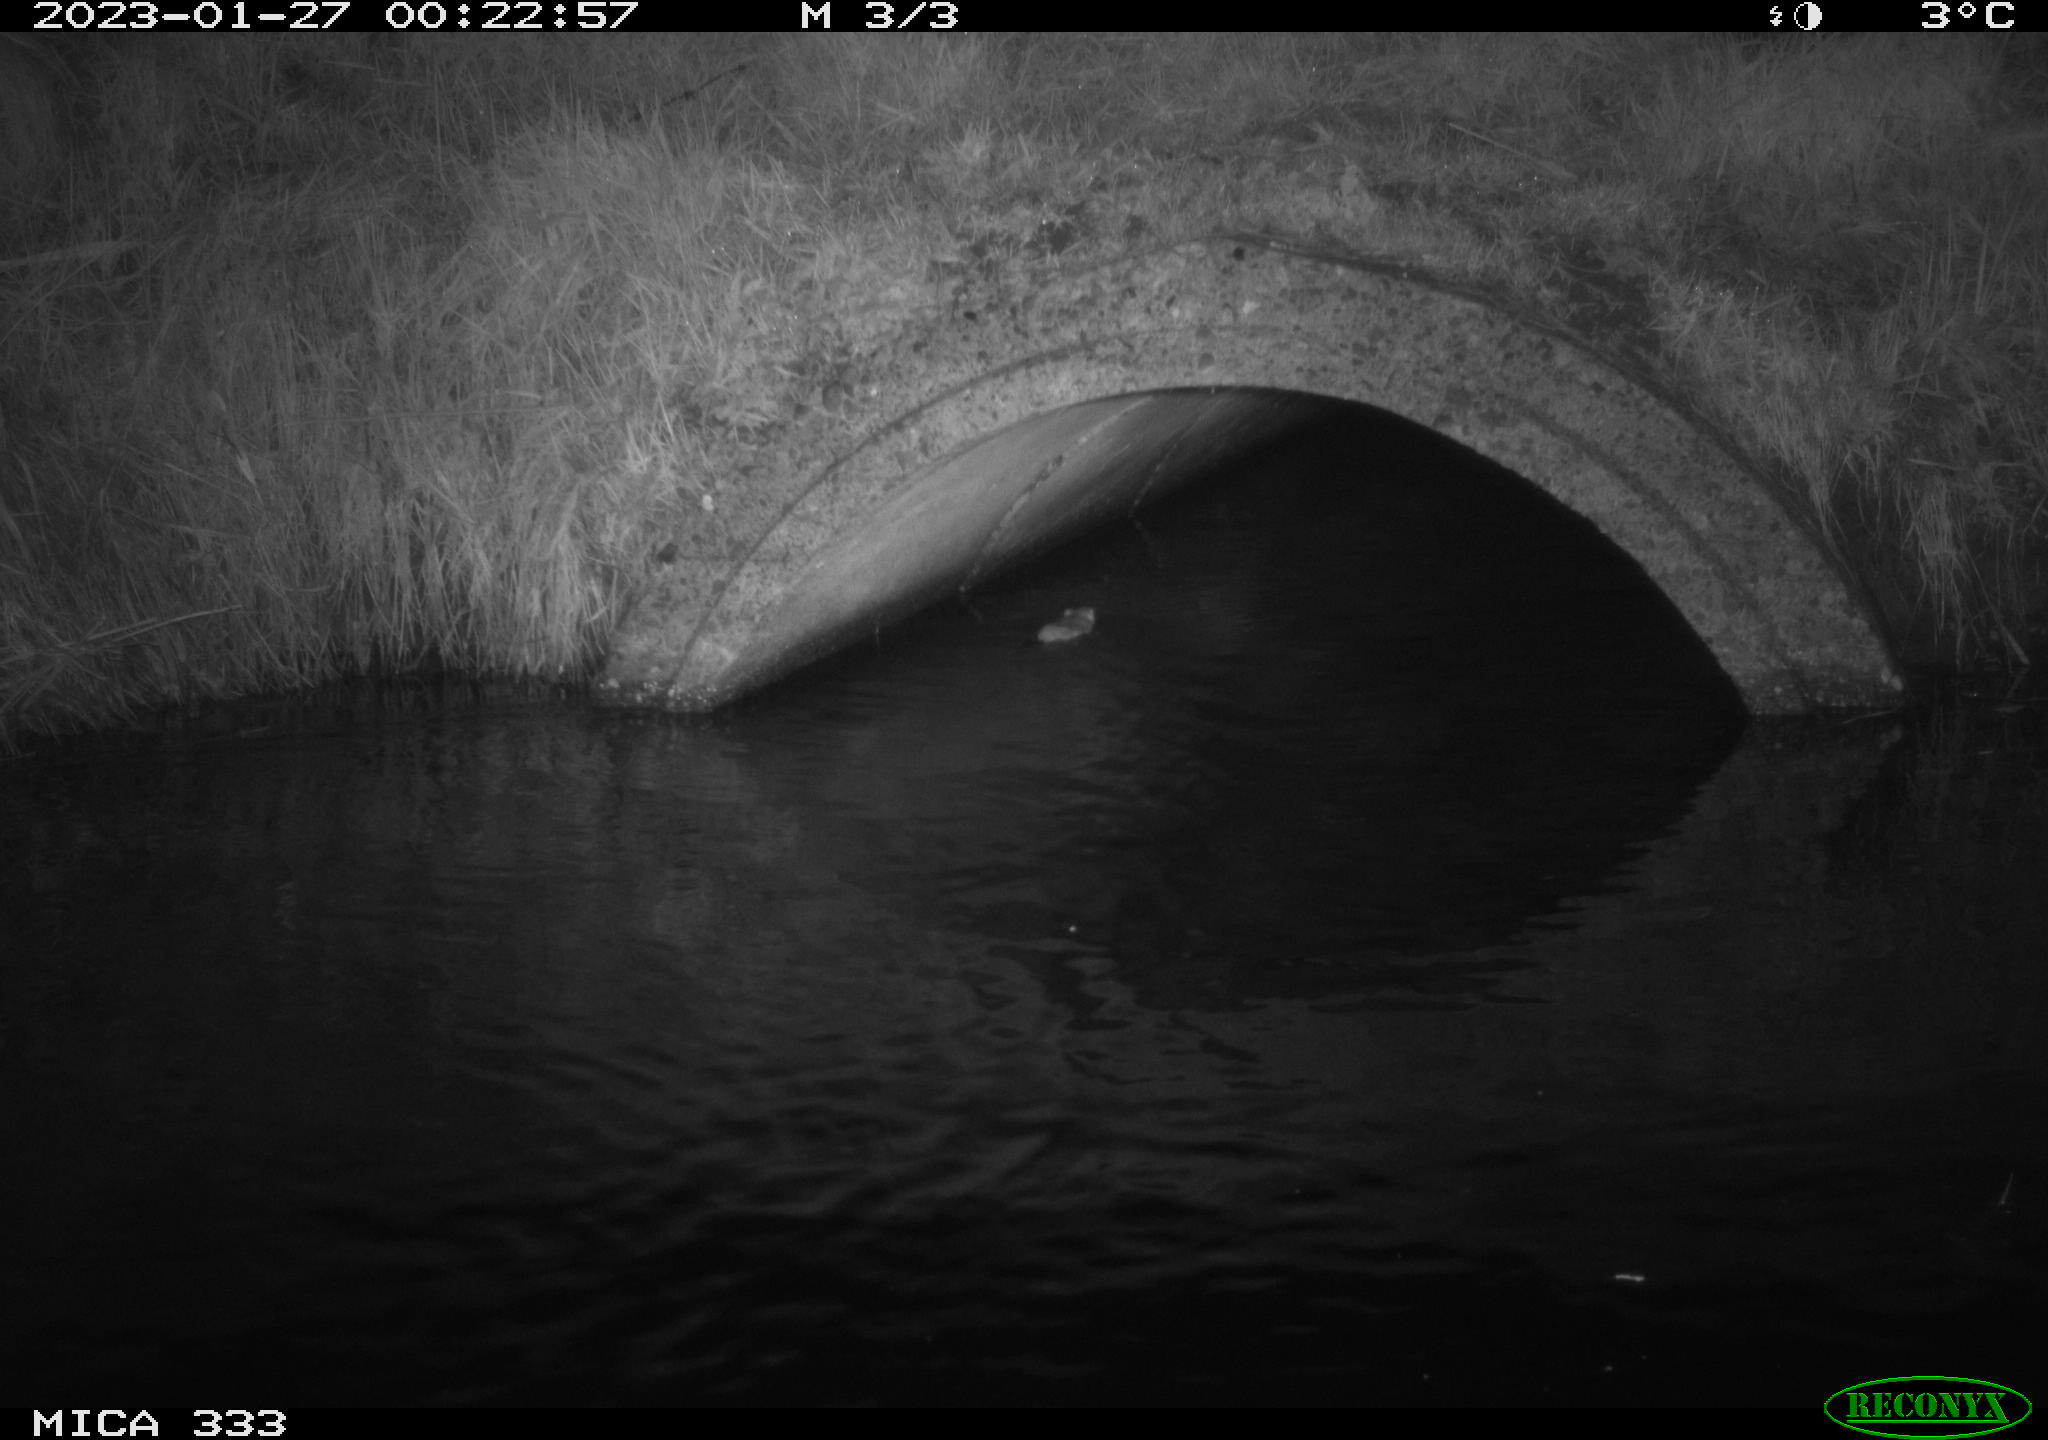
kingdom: Animalia
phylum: Chordata
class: Mammalia
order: Rodentia
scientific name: Rodentia
